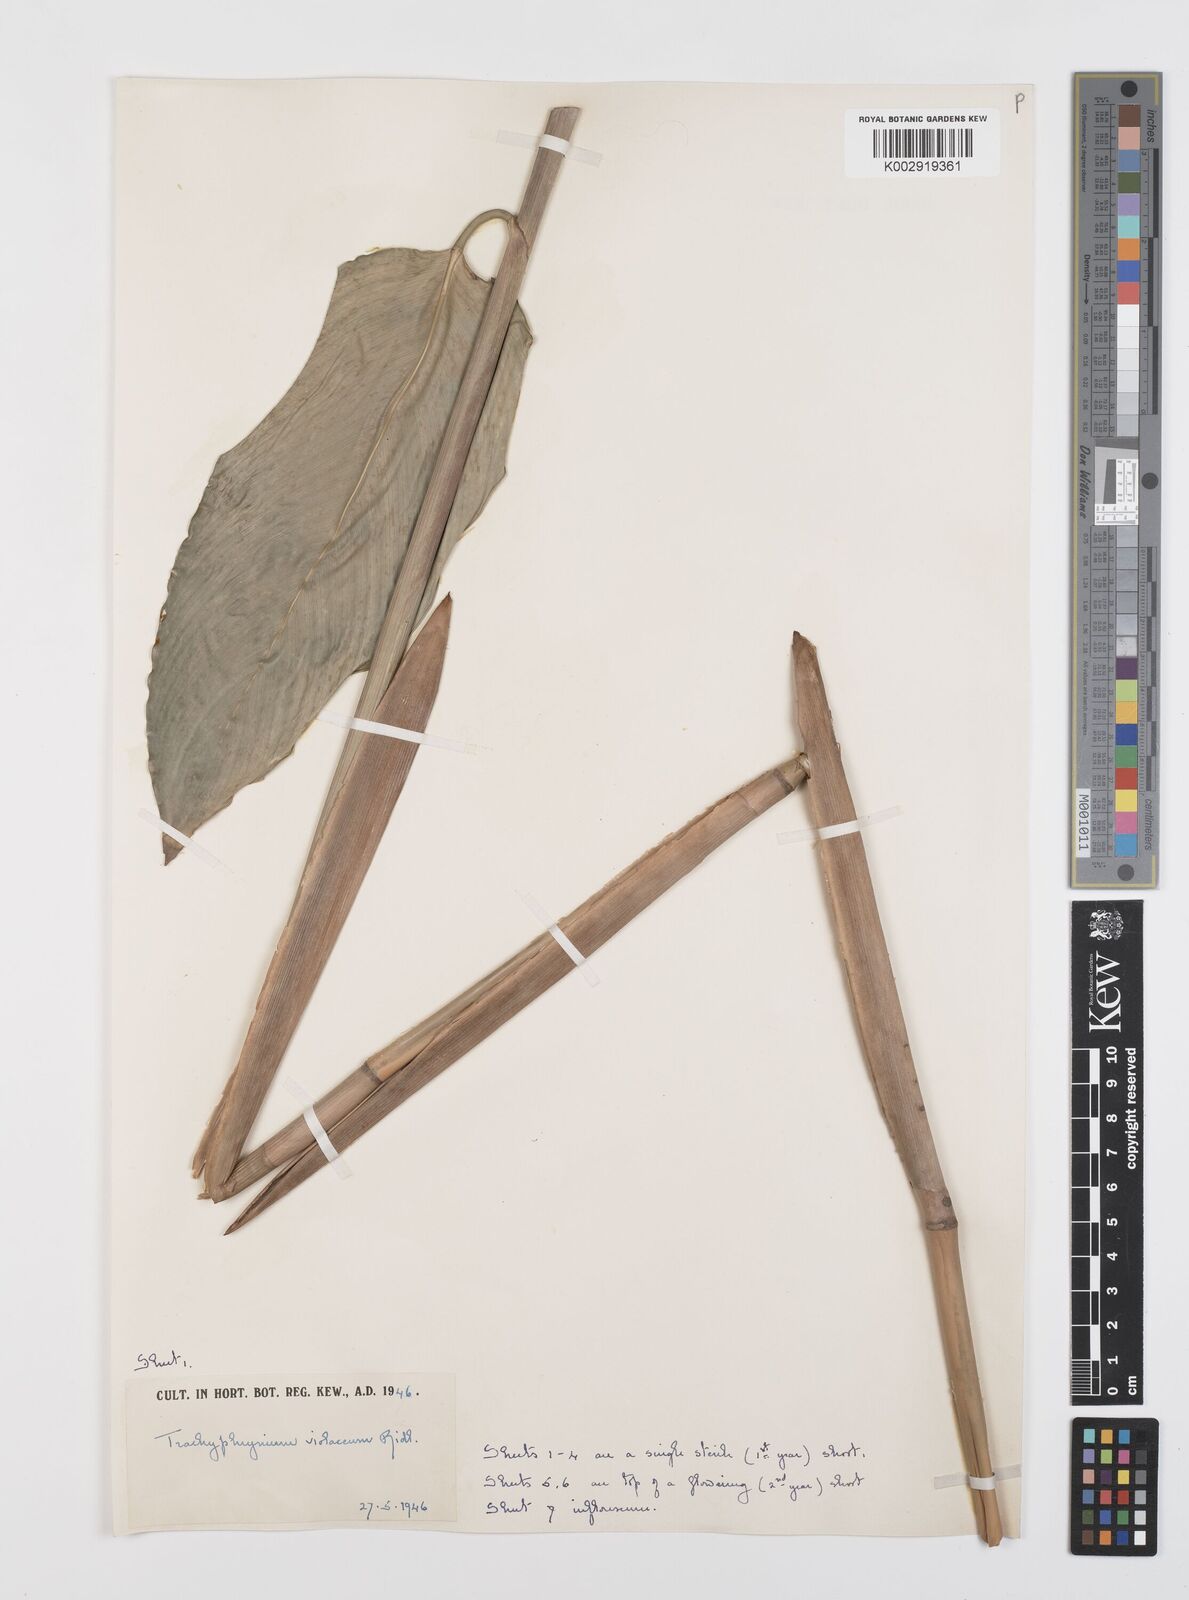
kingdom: Plantae
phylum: Tracheophyta
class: Liliopsida
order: Zingiberales
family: Marantaceae
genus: Hypselodelphys
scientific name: Hypselodelphys poggeana
